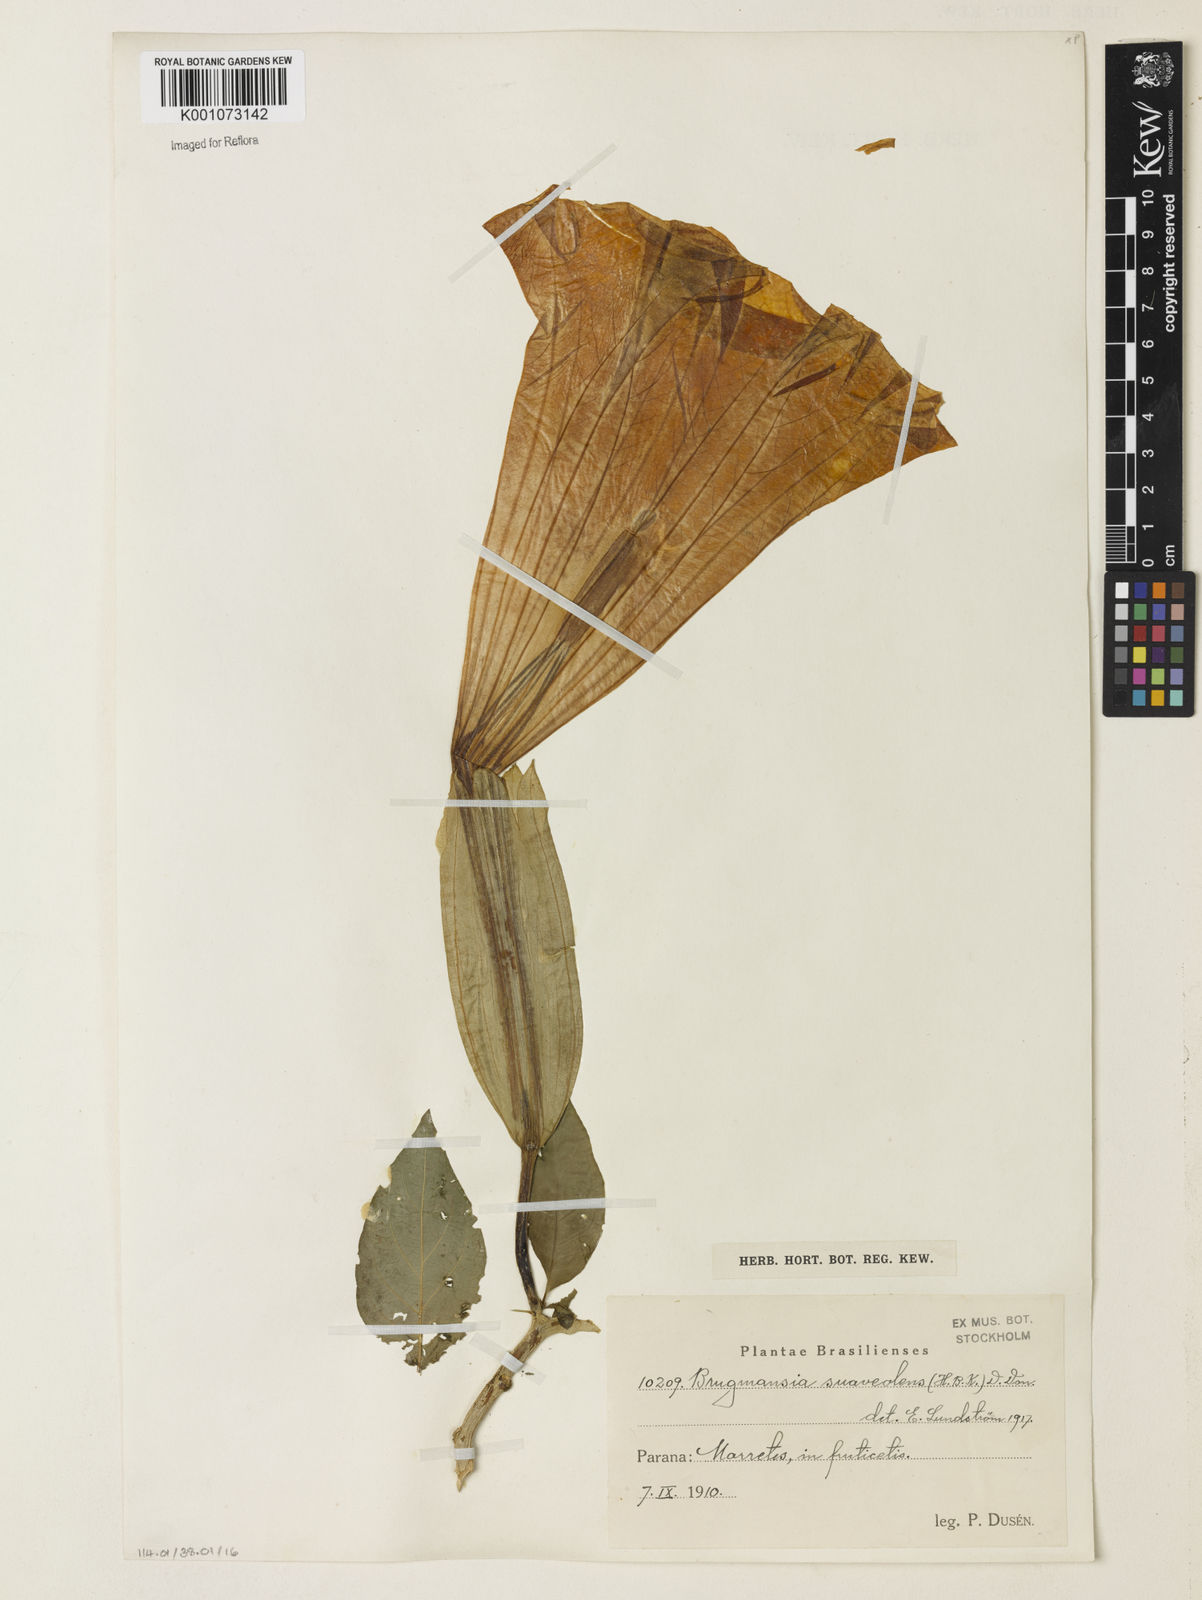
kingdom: Plantae
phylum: Tracheophyta
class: Magnoliopsida
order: Solanales
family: Solanaceae
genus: Brugmansia
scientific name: Brugmansia
